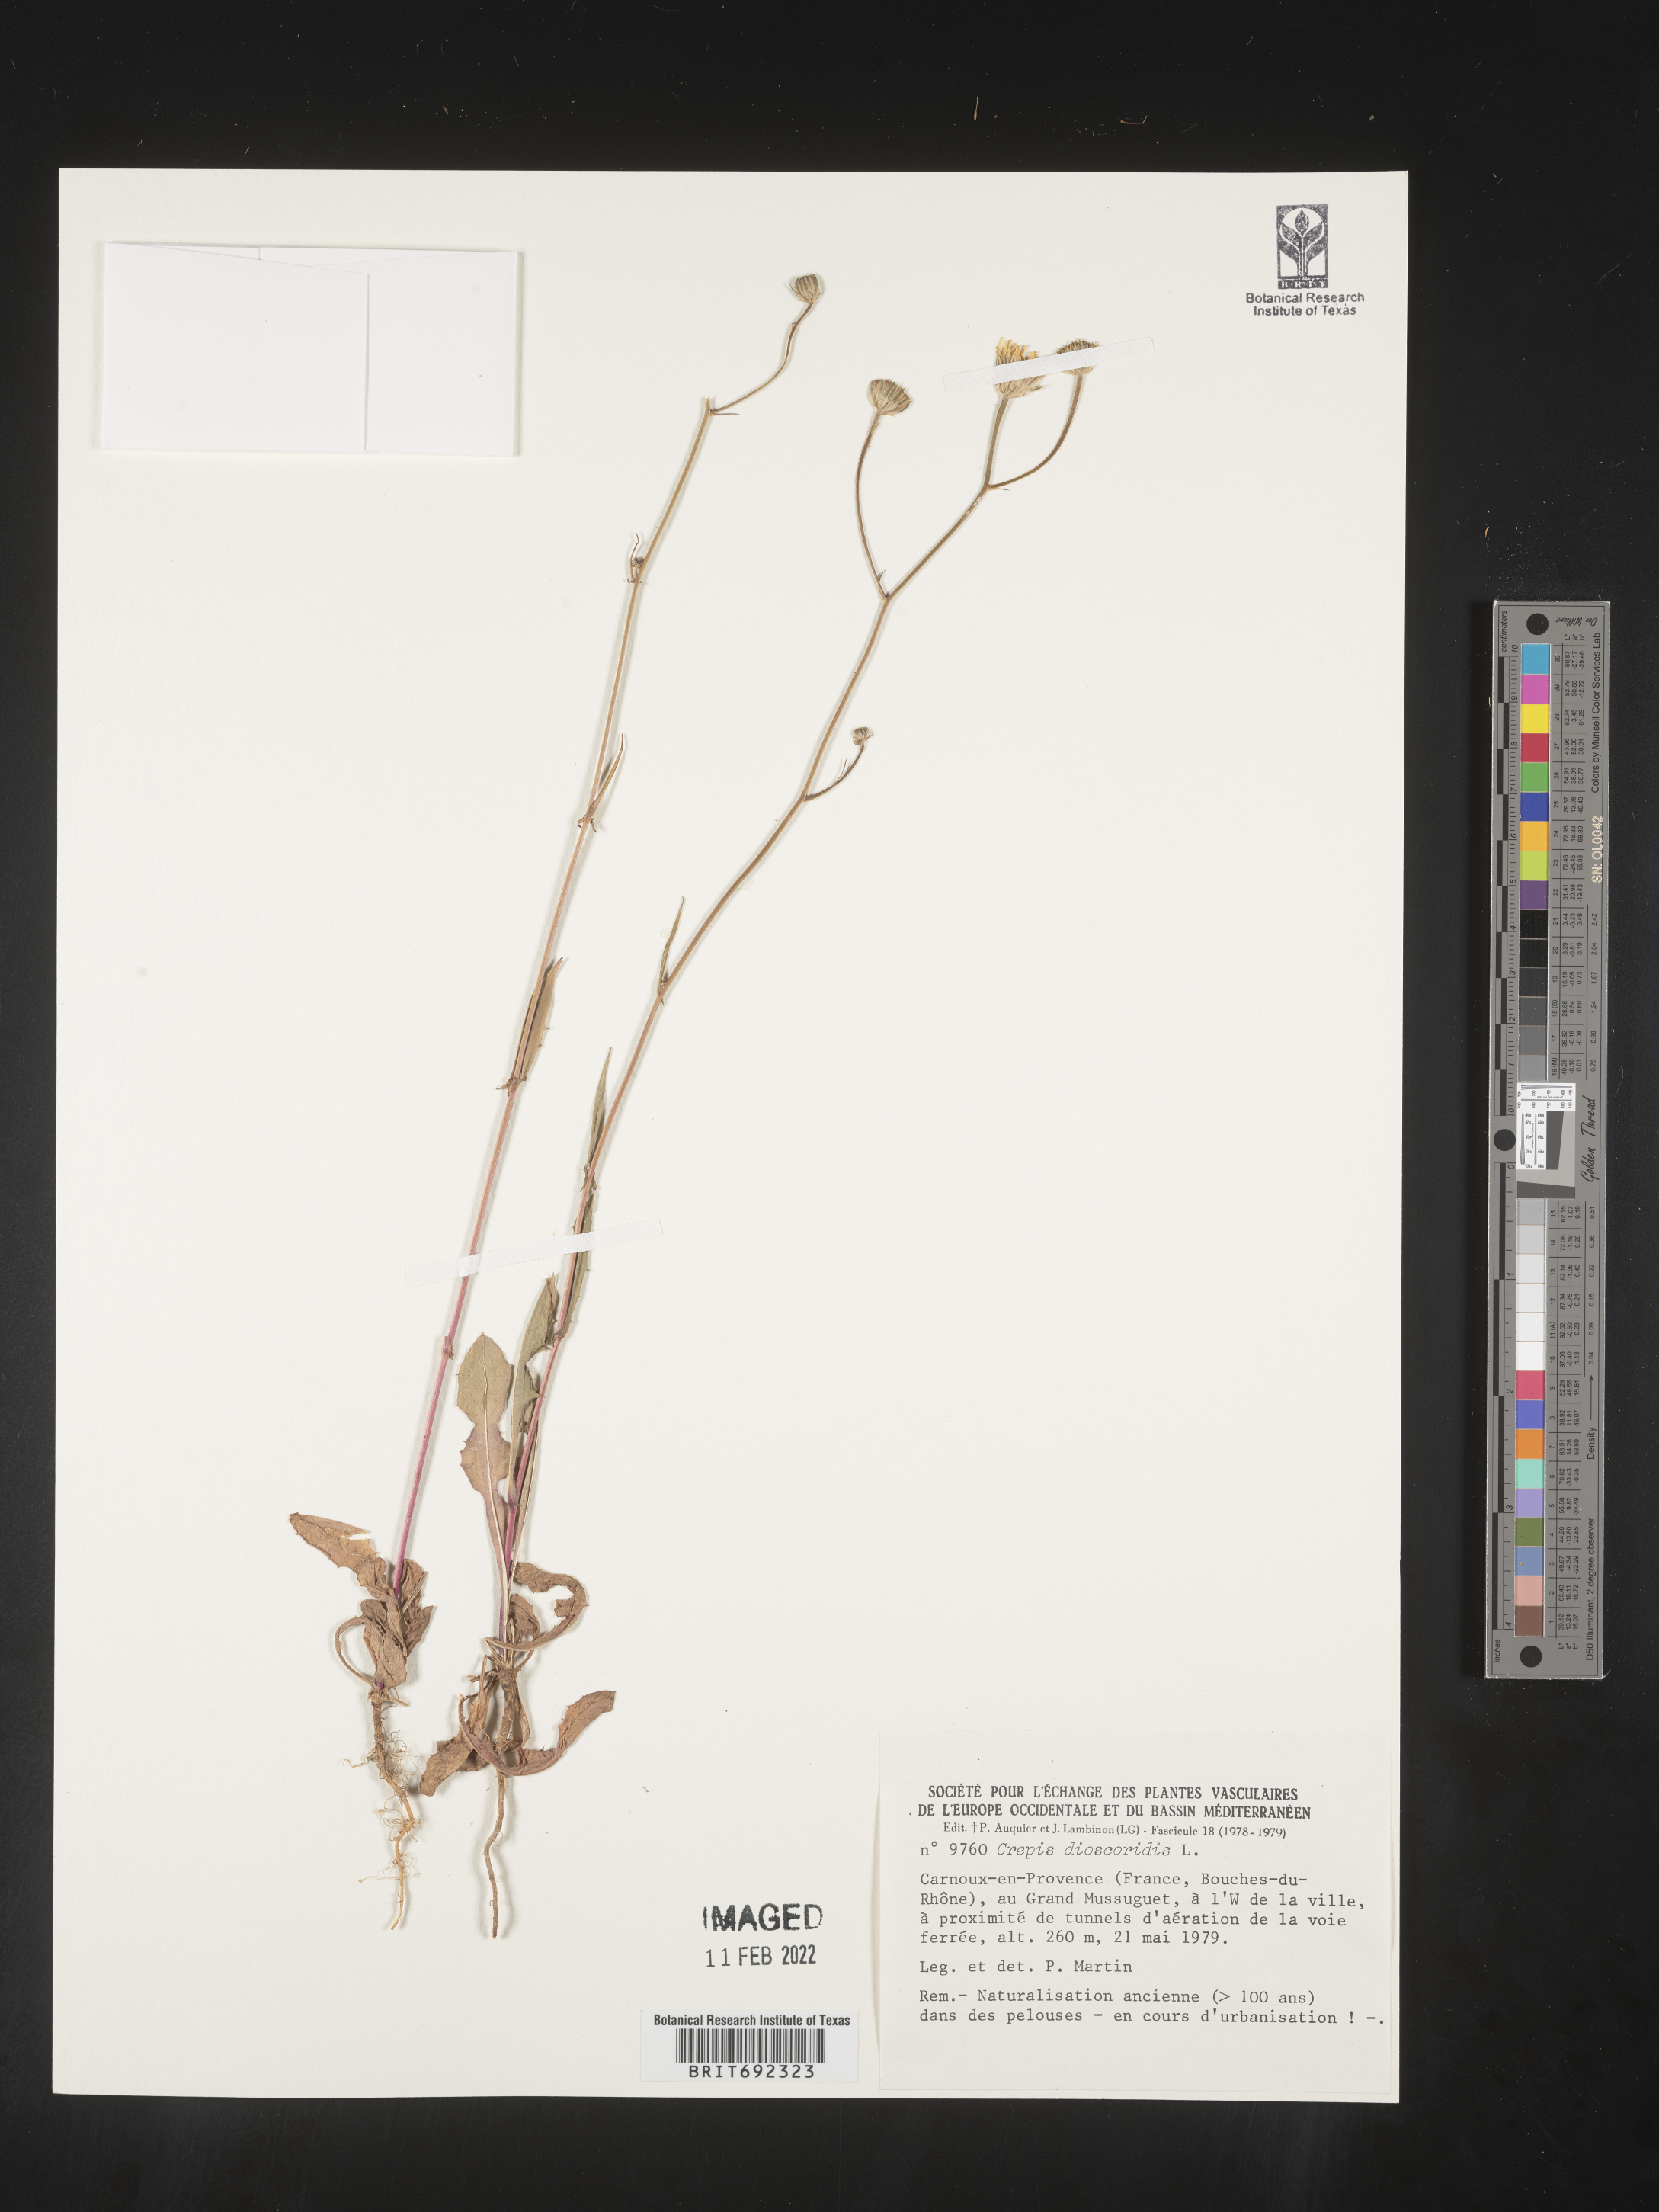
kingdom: Plantae
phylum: Tracheophyta
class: Magnoliopsida
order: Asterales
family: Asteraceae
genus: Crepis
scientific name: Crepis
